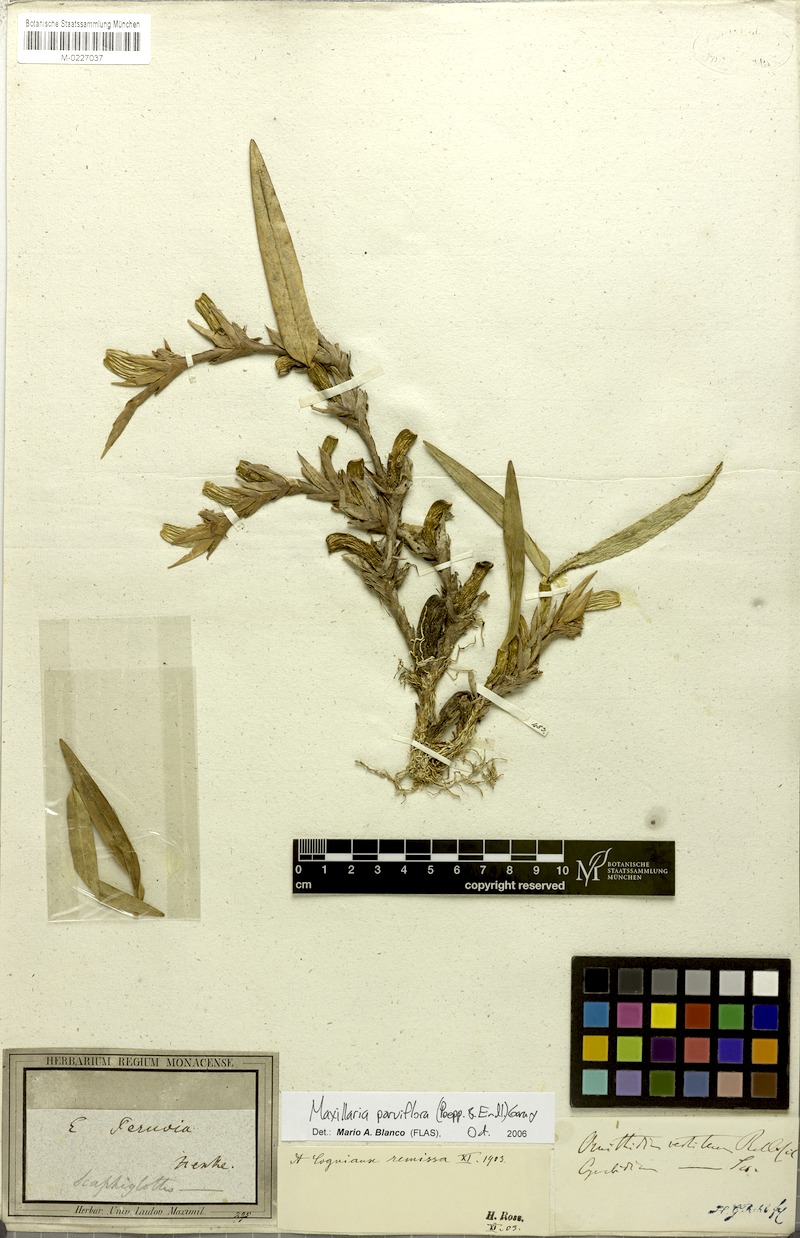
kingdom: Plantae
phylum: Tracheophyta
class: Liliopsida
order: Asparagales
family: Orchidaceae
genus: Maxillaria
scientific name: Maxillaria parviflora
